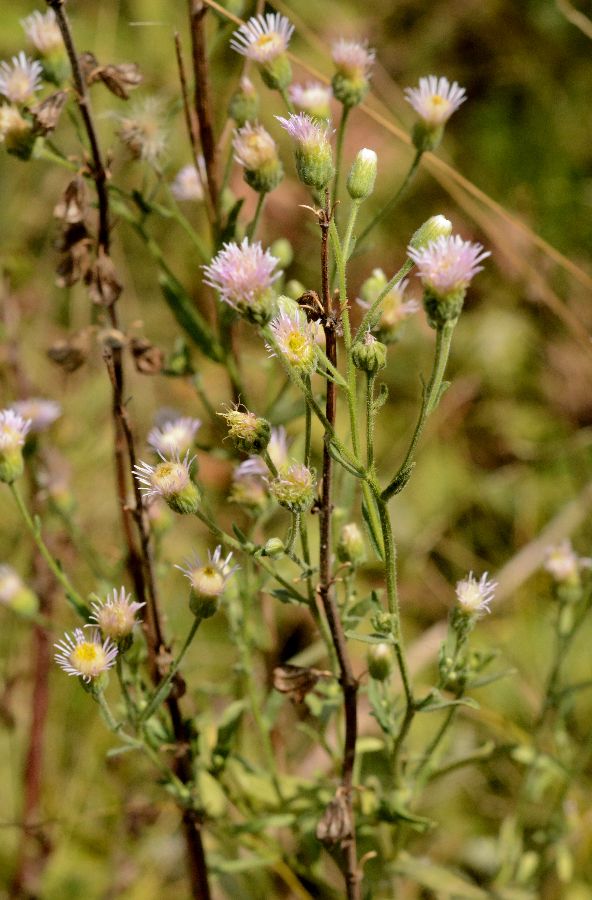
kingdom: Plantae
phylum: Tracheophyta
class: Magnoliopsida
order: Asterales
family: Asteraceae
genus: Erigeron
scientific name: Erigeron podolicus
